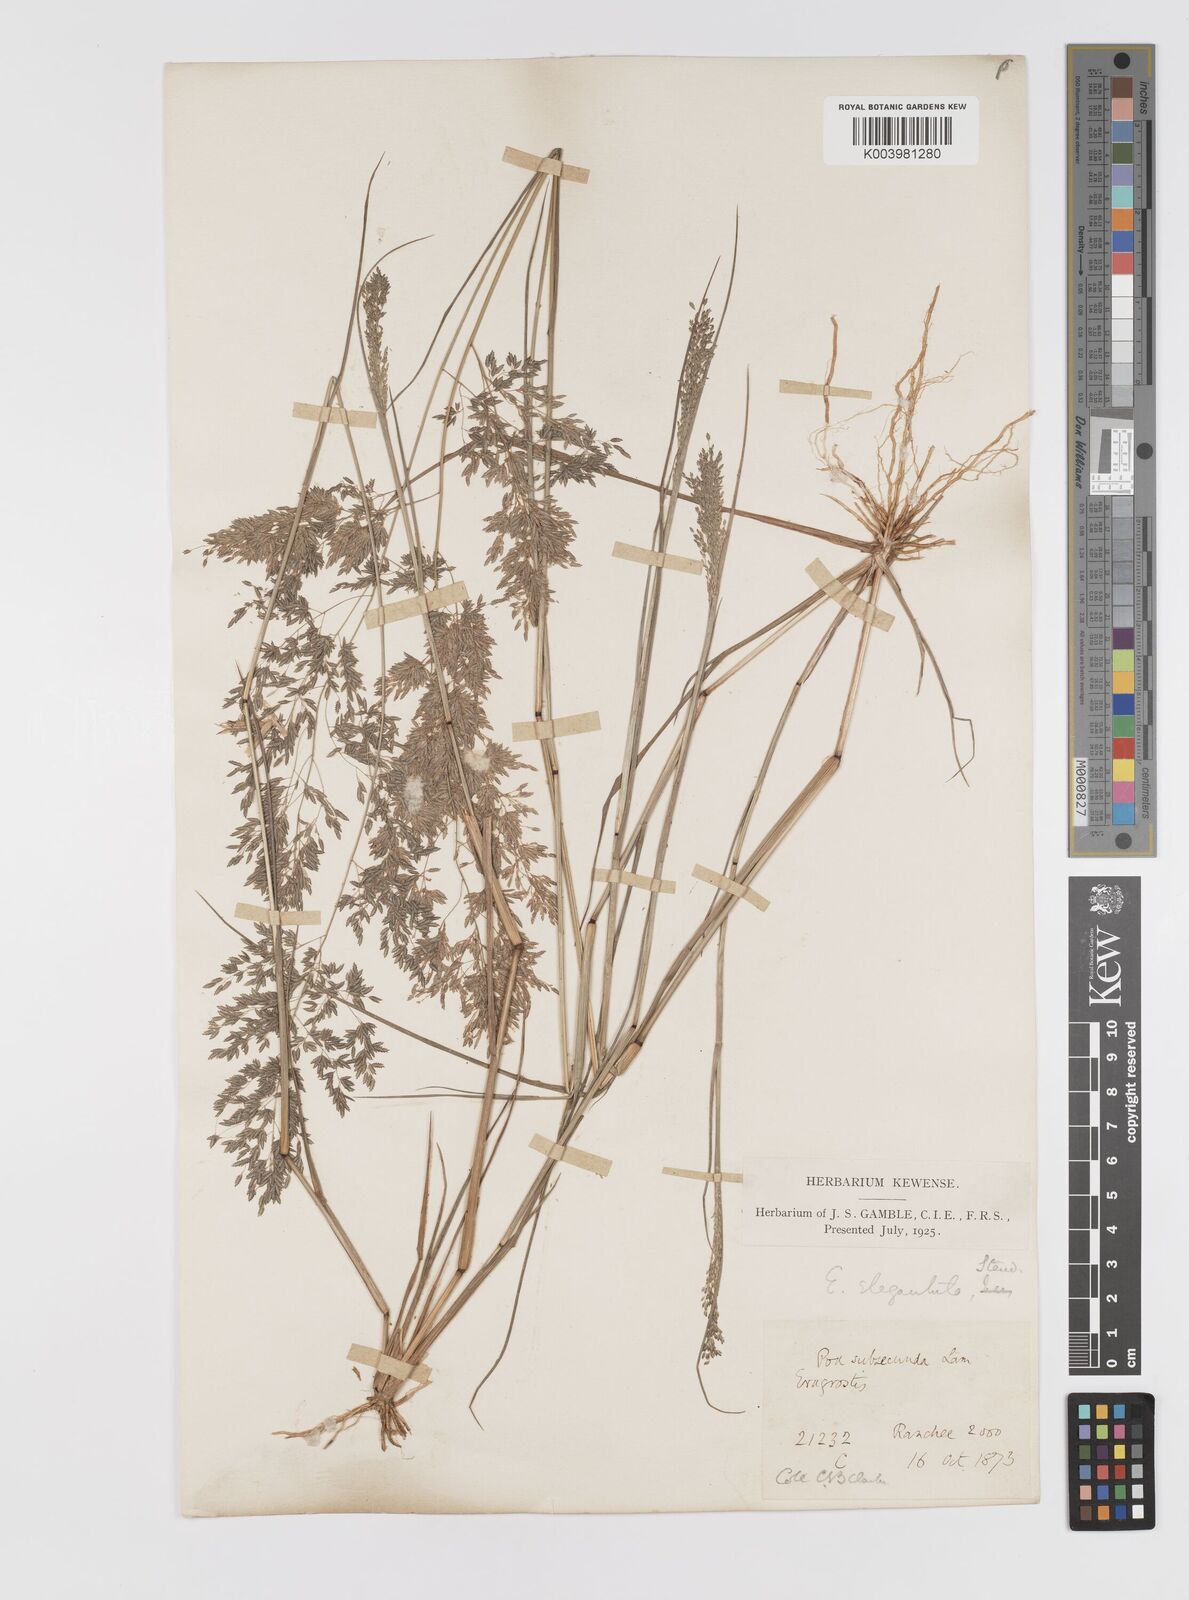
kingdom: Plantae
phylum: Tracheophyta
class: Liliopsida
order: Poales
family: Poaceae
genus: Eragrostis
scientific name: Eragrostis gangetica
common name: Slimflower lovegrass
